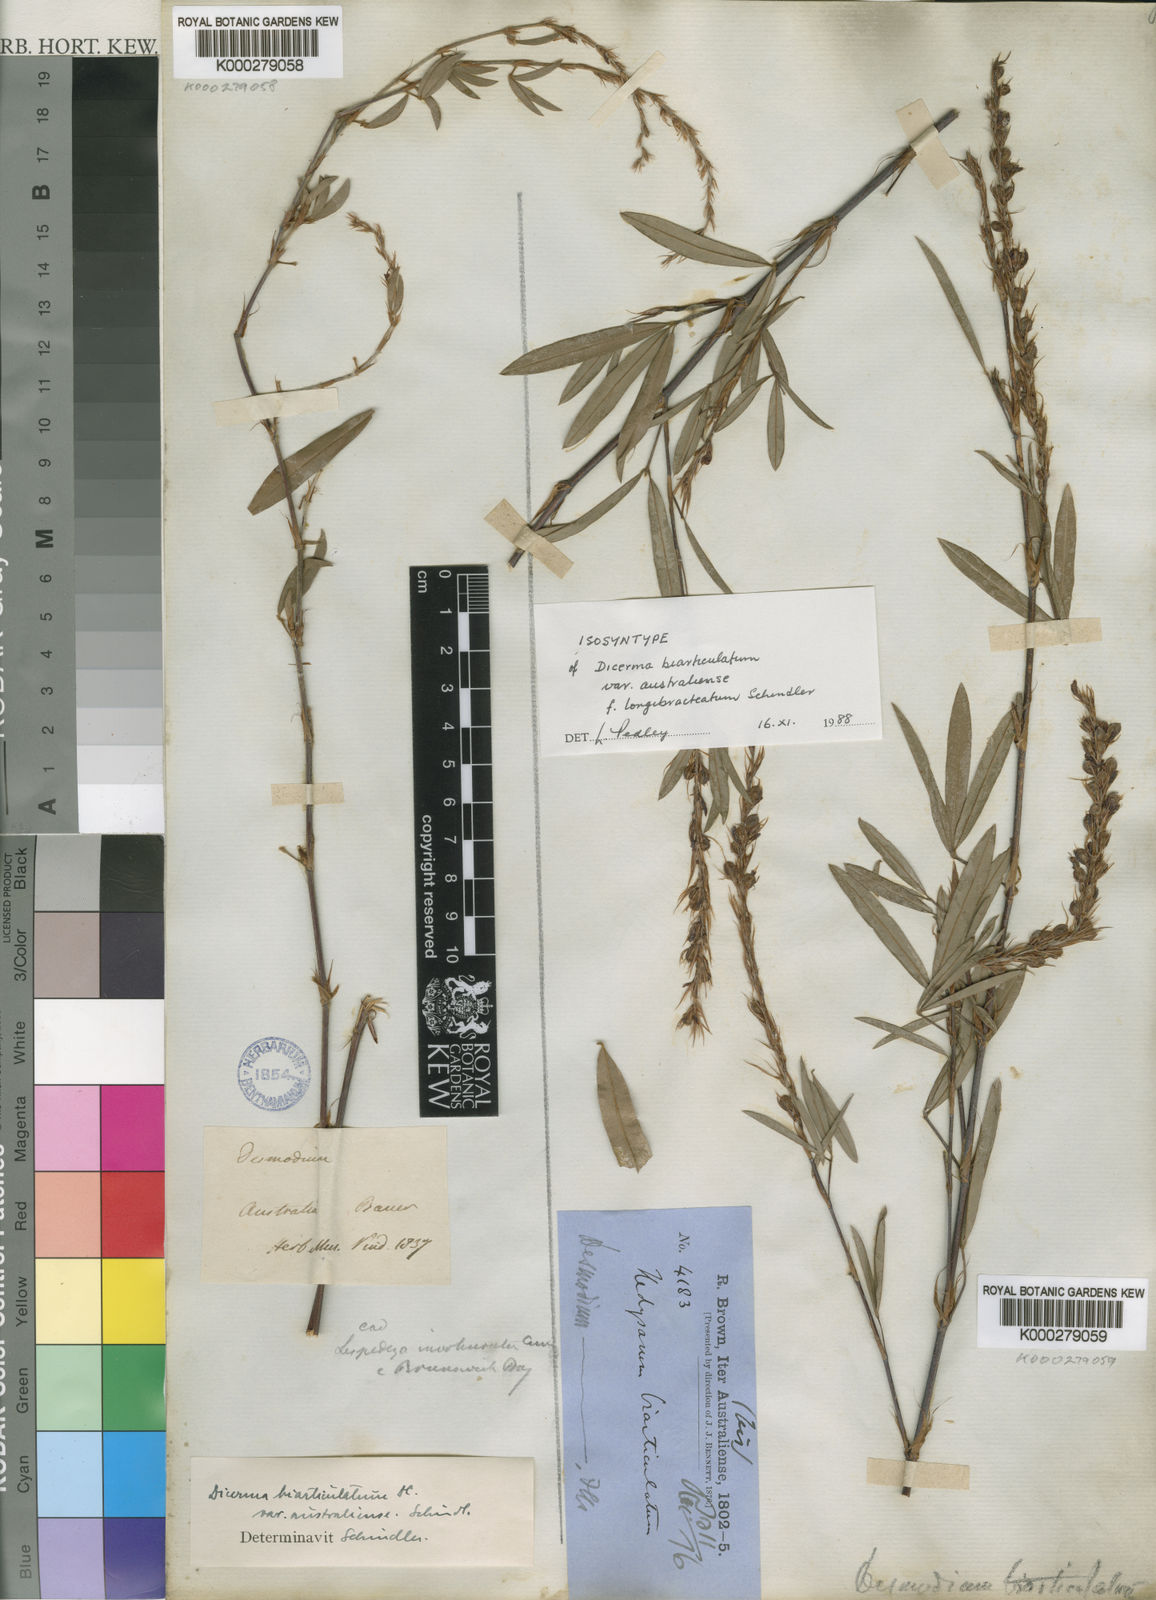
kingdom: Plantae
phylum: Tracheophyta
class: Magnoliopsida
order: Fabales
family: Fabaceae
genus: Aphyllodium
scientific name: Aphyllodium biarticulatum
